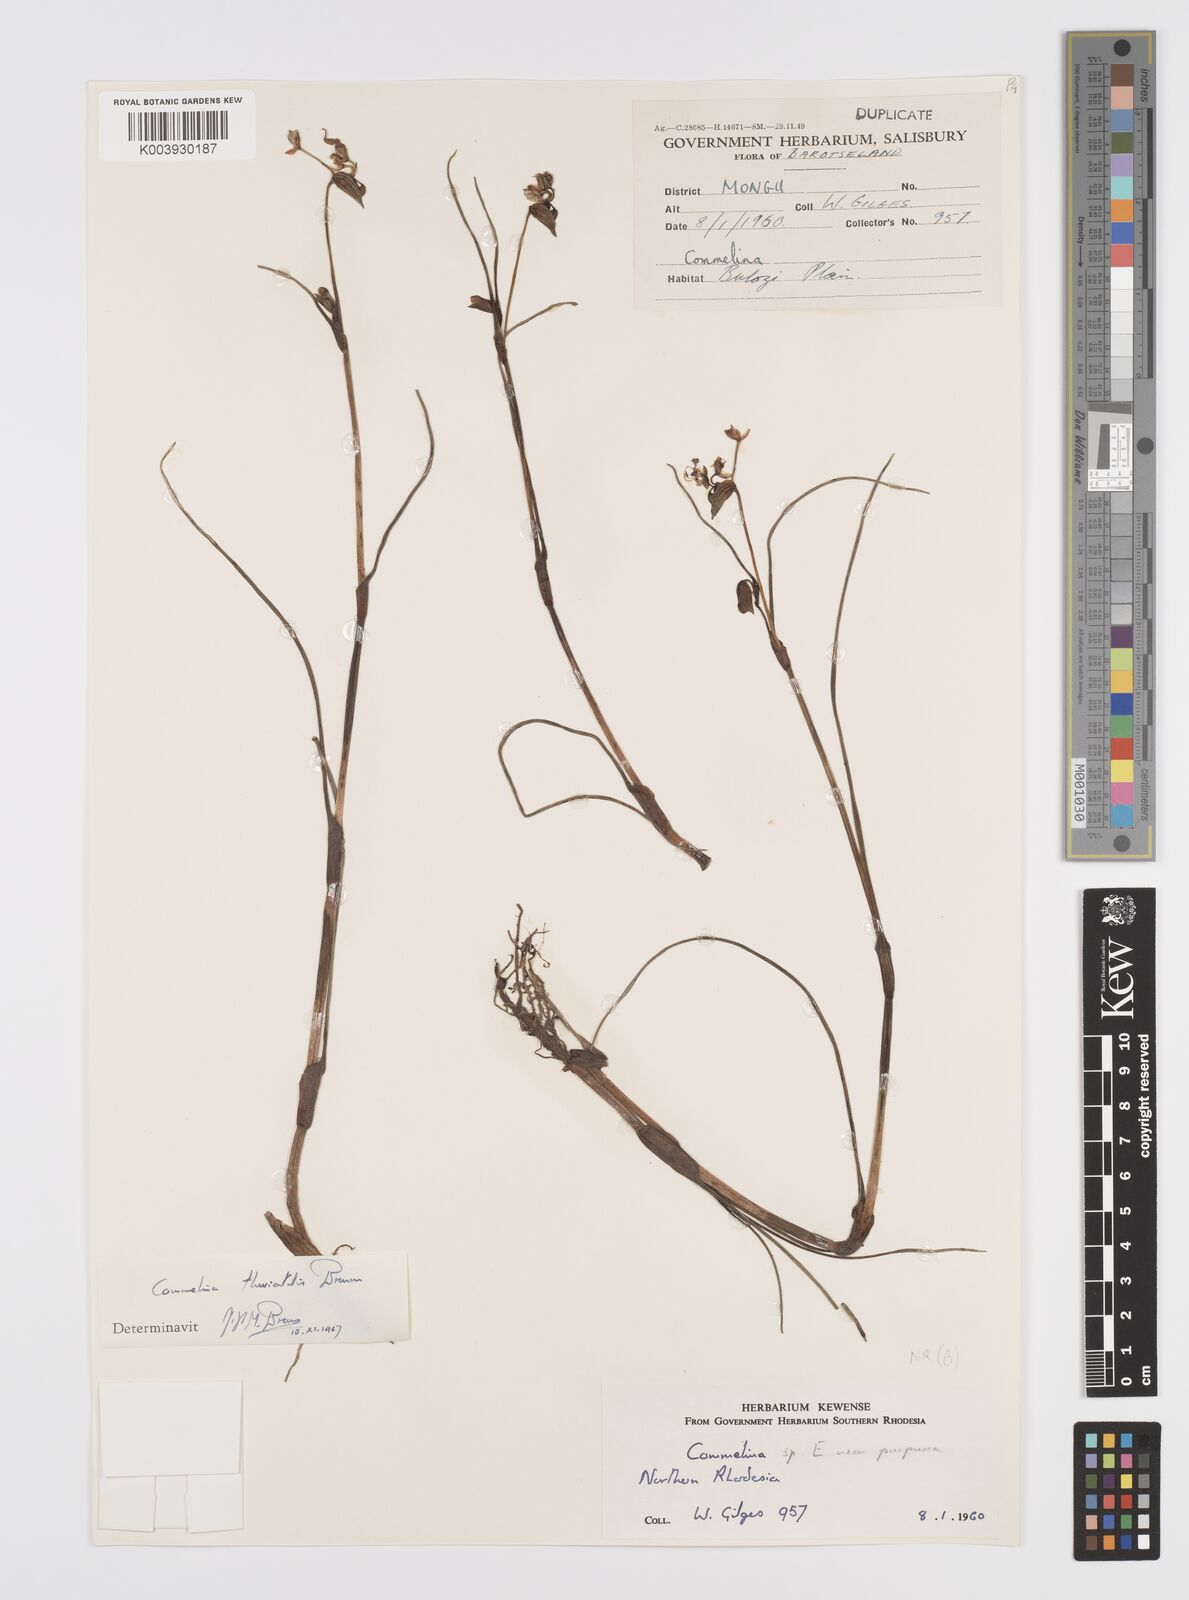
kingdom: Plantae
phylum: Tracheophyta
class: Liliopsida
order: Commelinales
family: Commelinaceae
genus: Commelina
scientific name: Commelina fluviatilis
